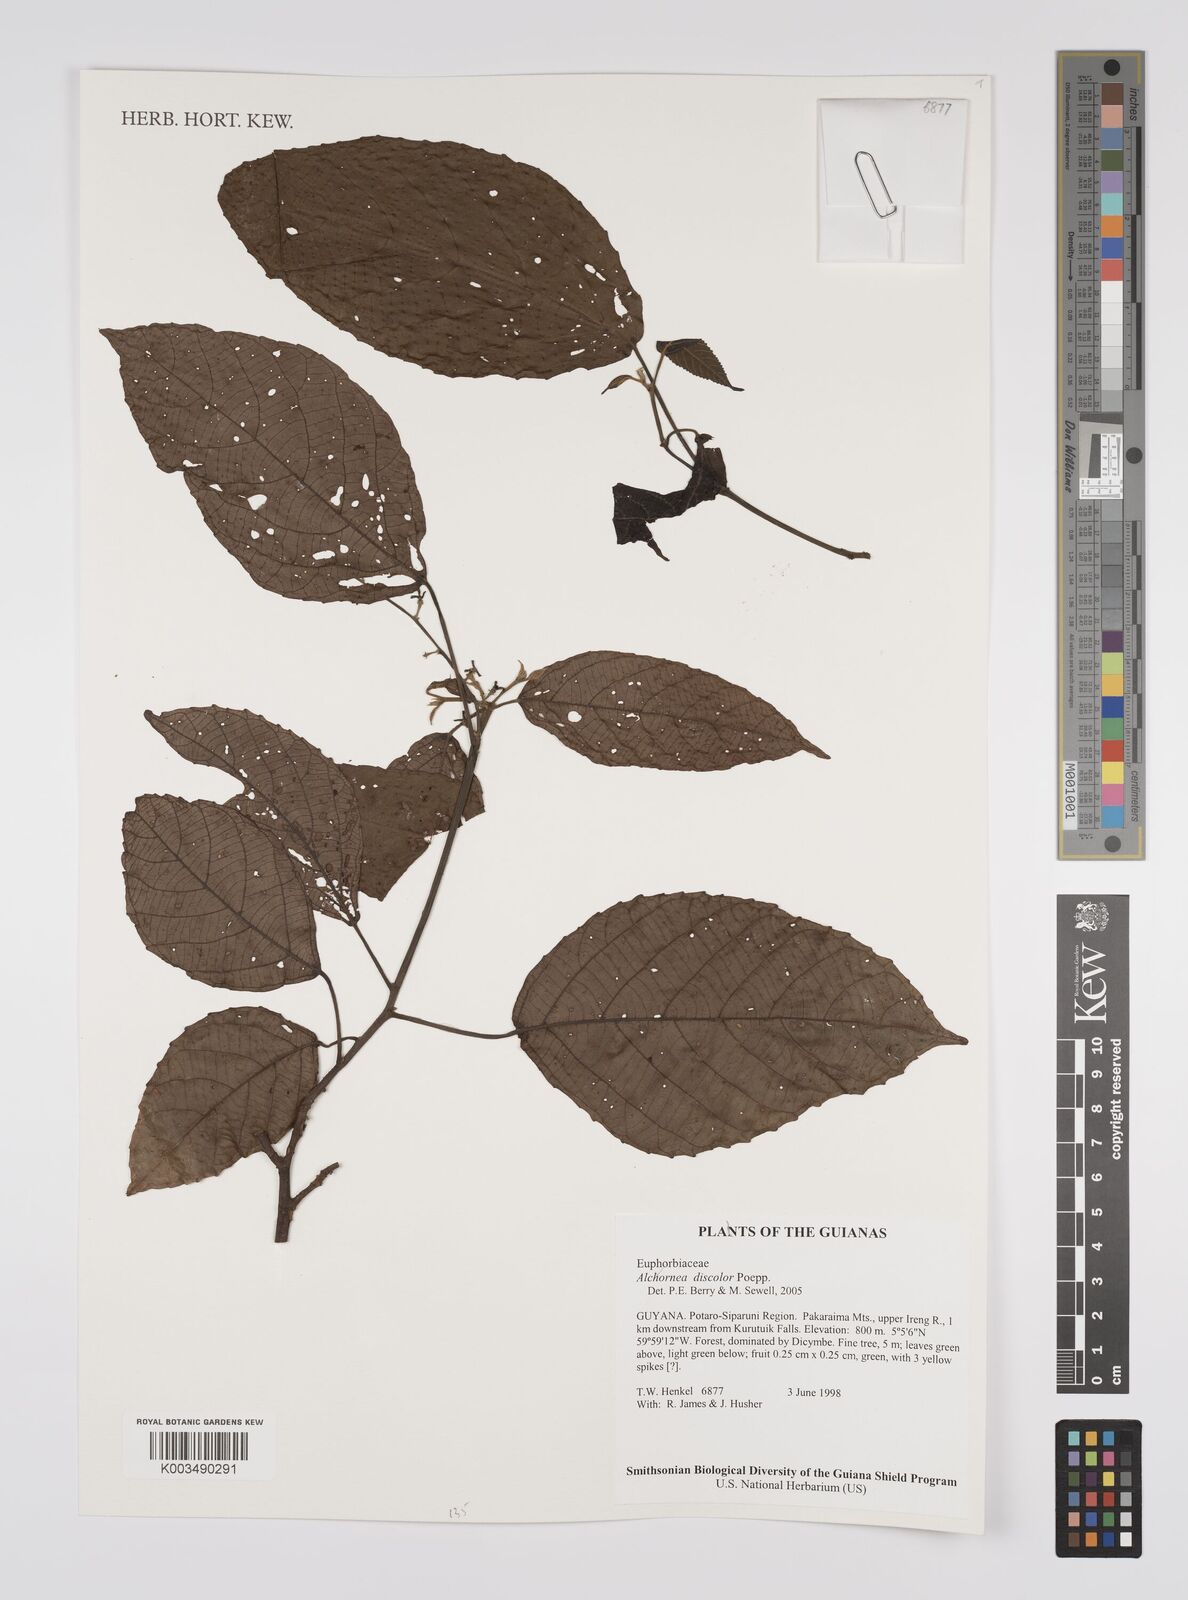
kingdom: Plantae
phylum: Tracheophyta
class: Magnoliopsida
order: Malpighiales
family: Euphorbiaceae
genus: Alchornea
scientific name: Alchornea discolor
